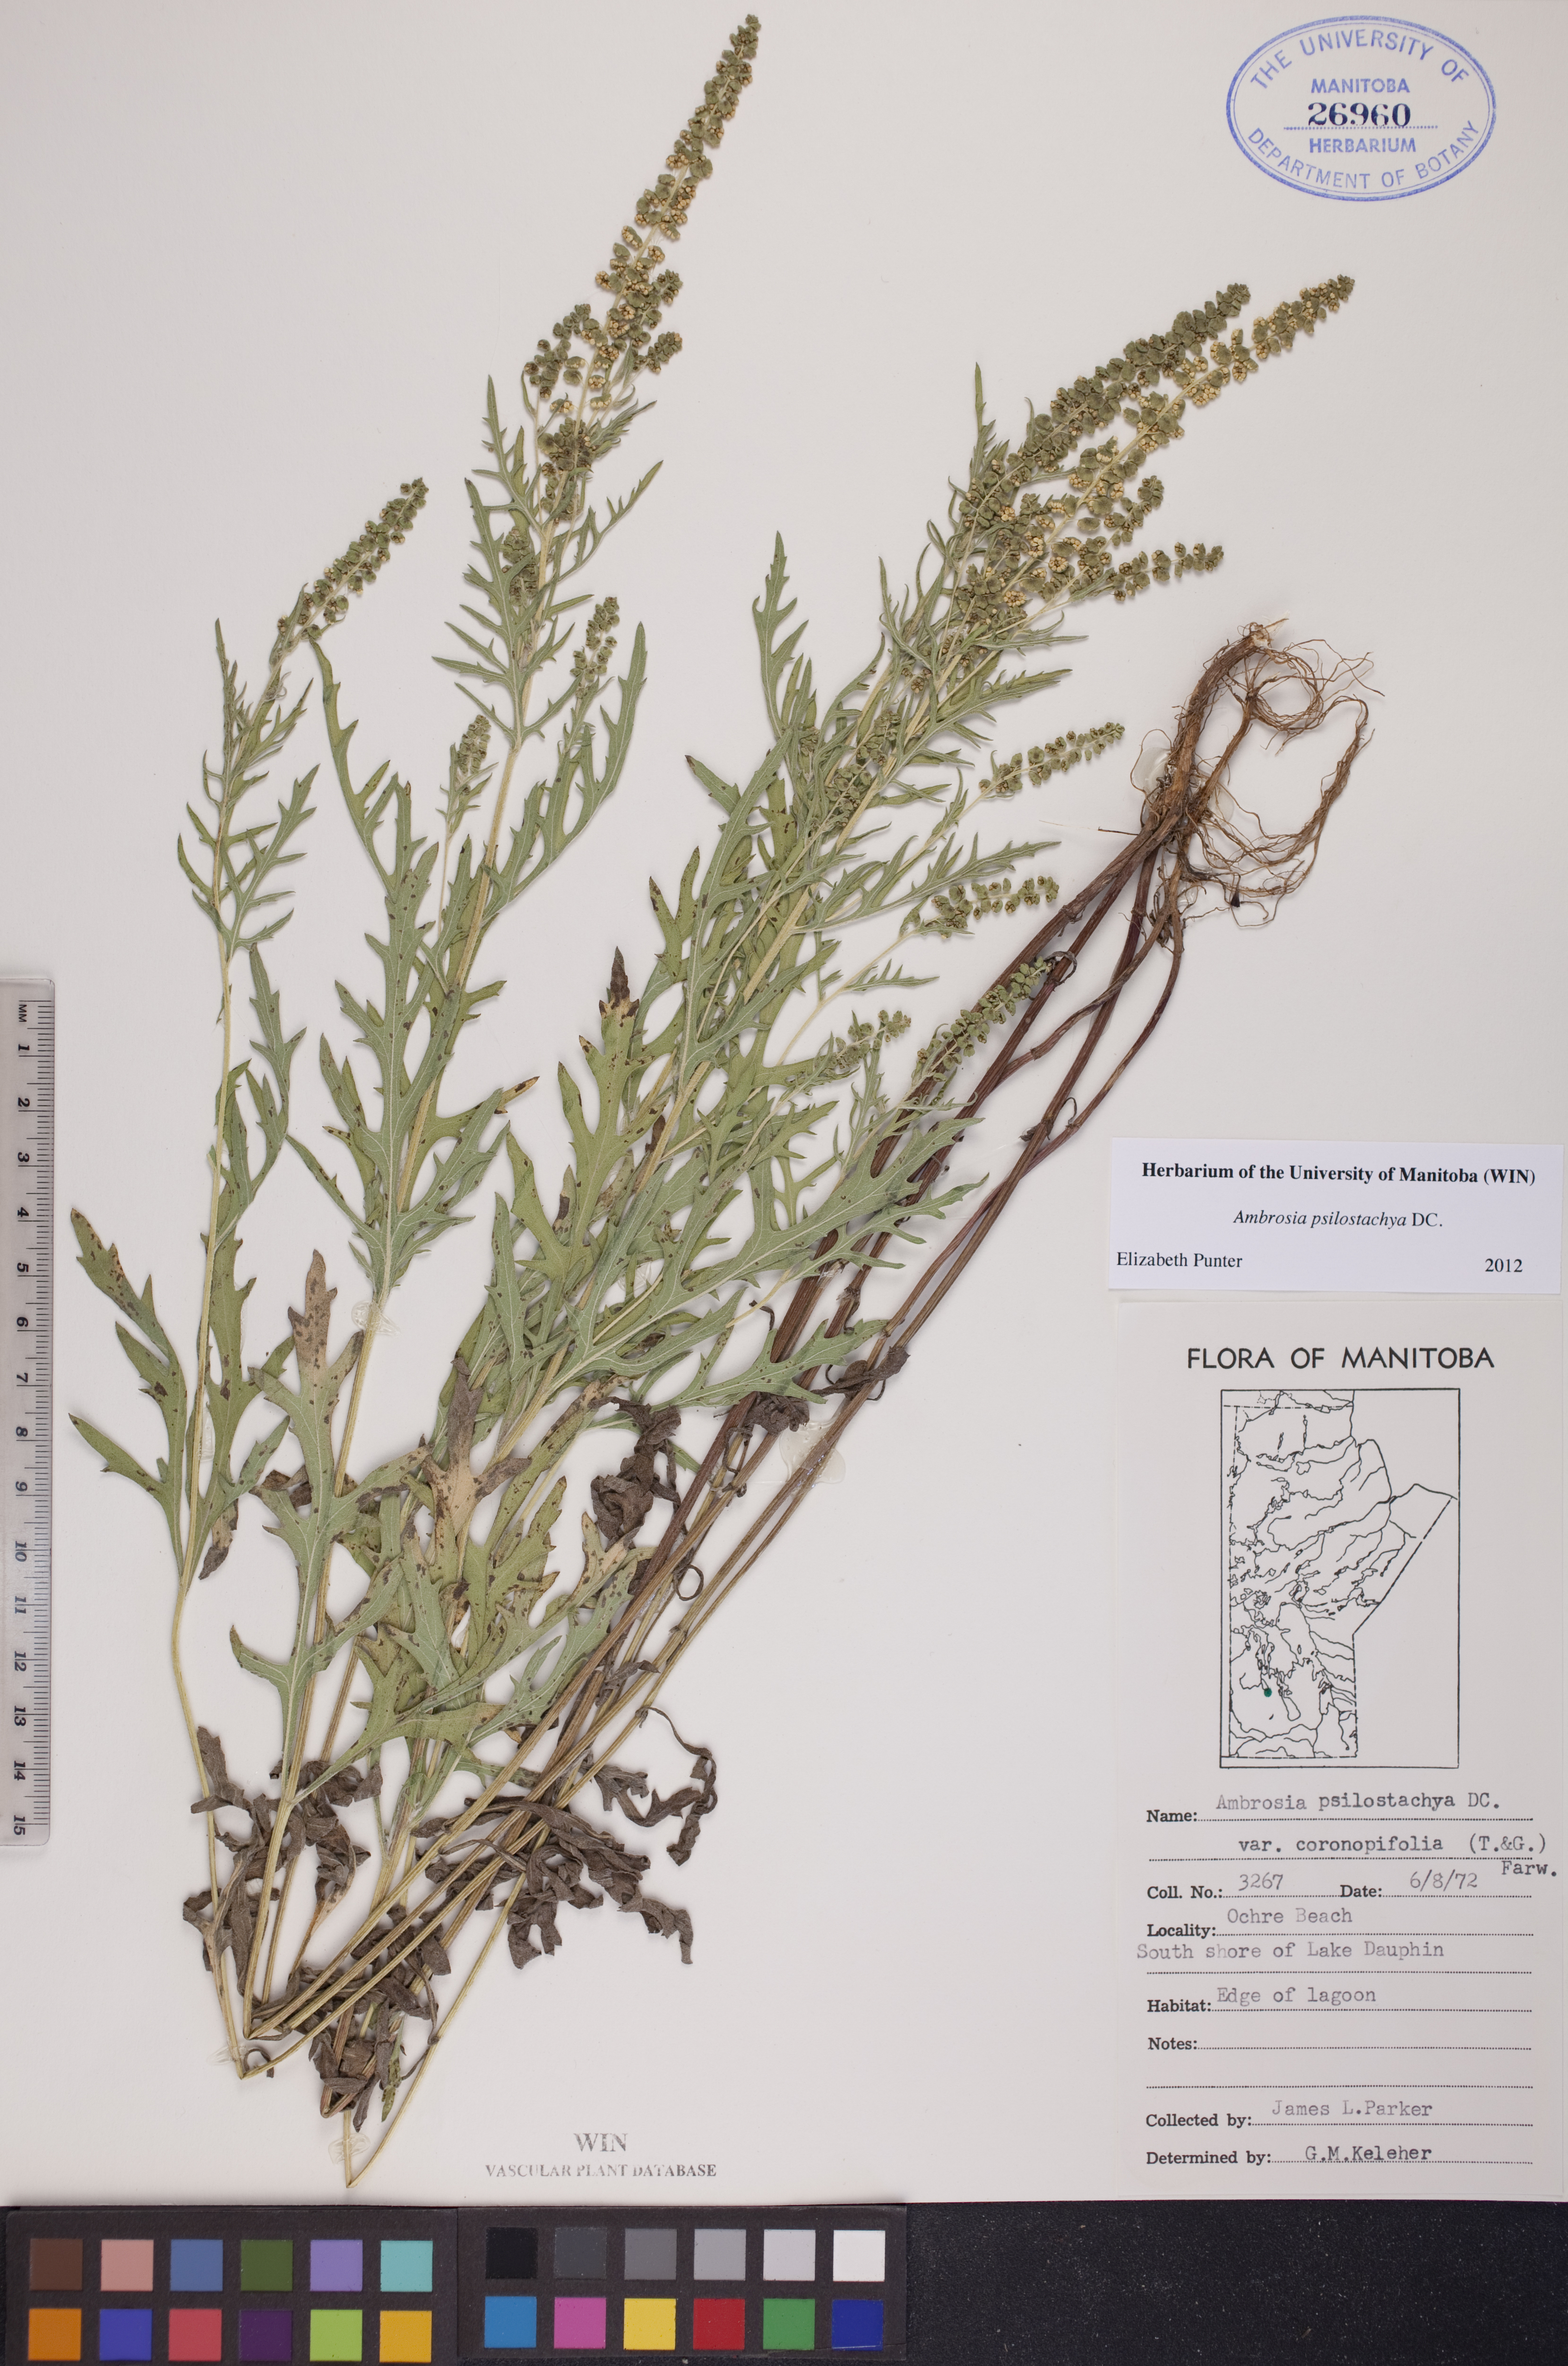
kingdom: Plantae
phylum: Tracheophyta
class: Magnoliopsida
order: Asterales
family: Asteraceae
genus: Ambrosia
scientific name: Ambrosia psilostachya
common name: Perennial ragweed
